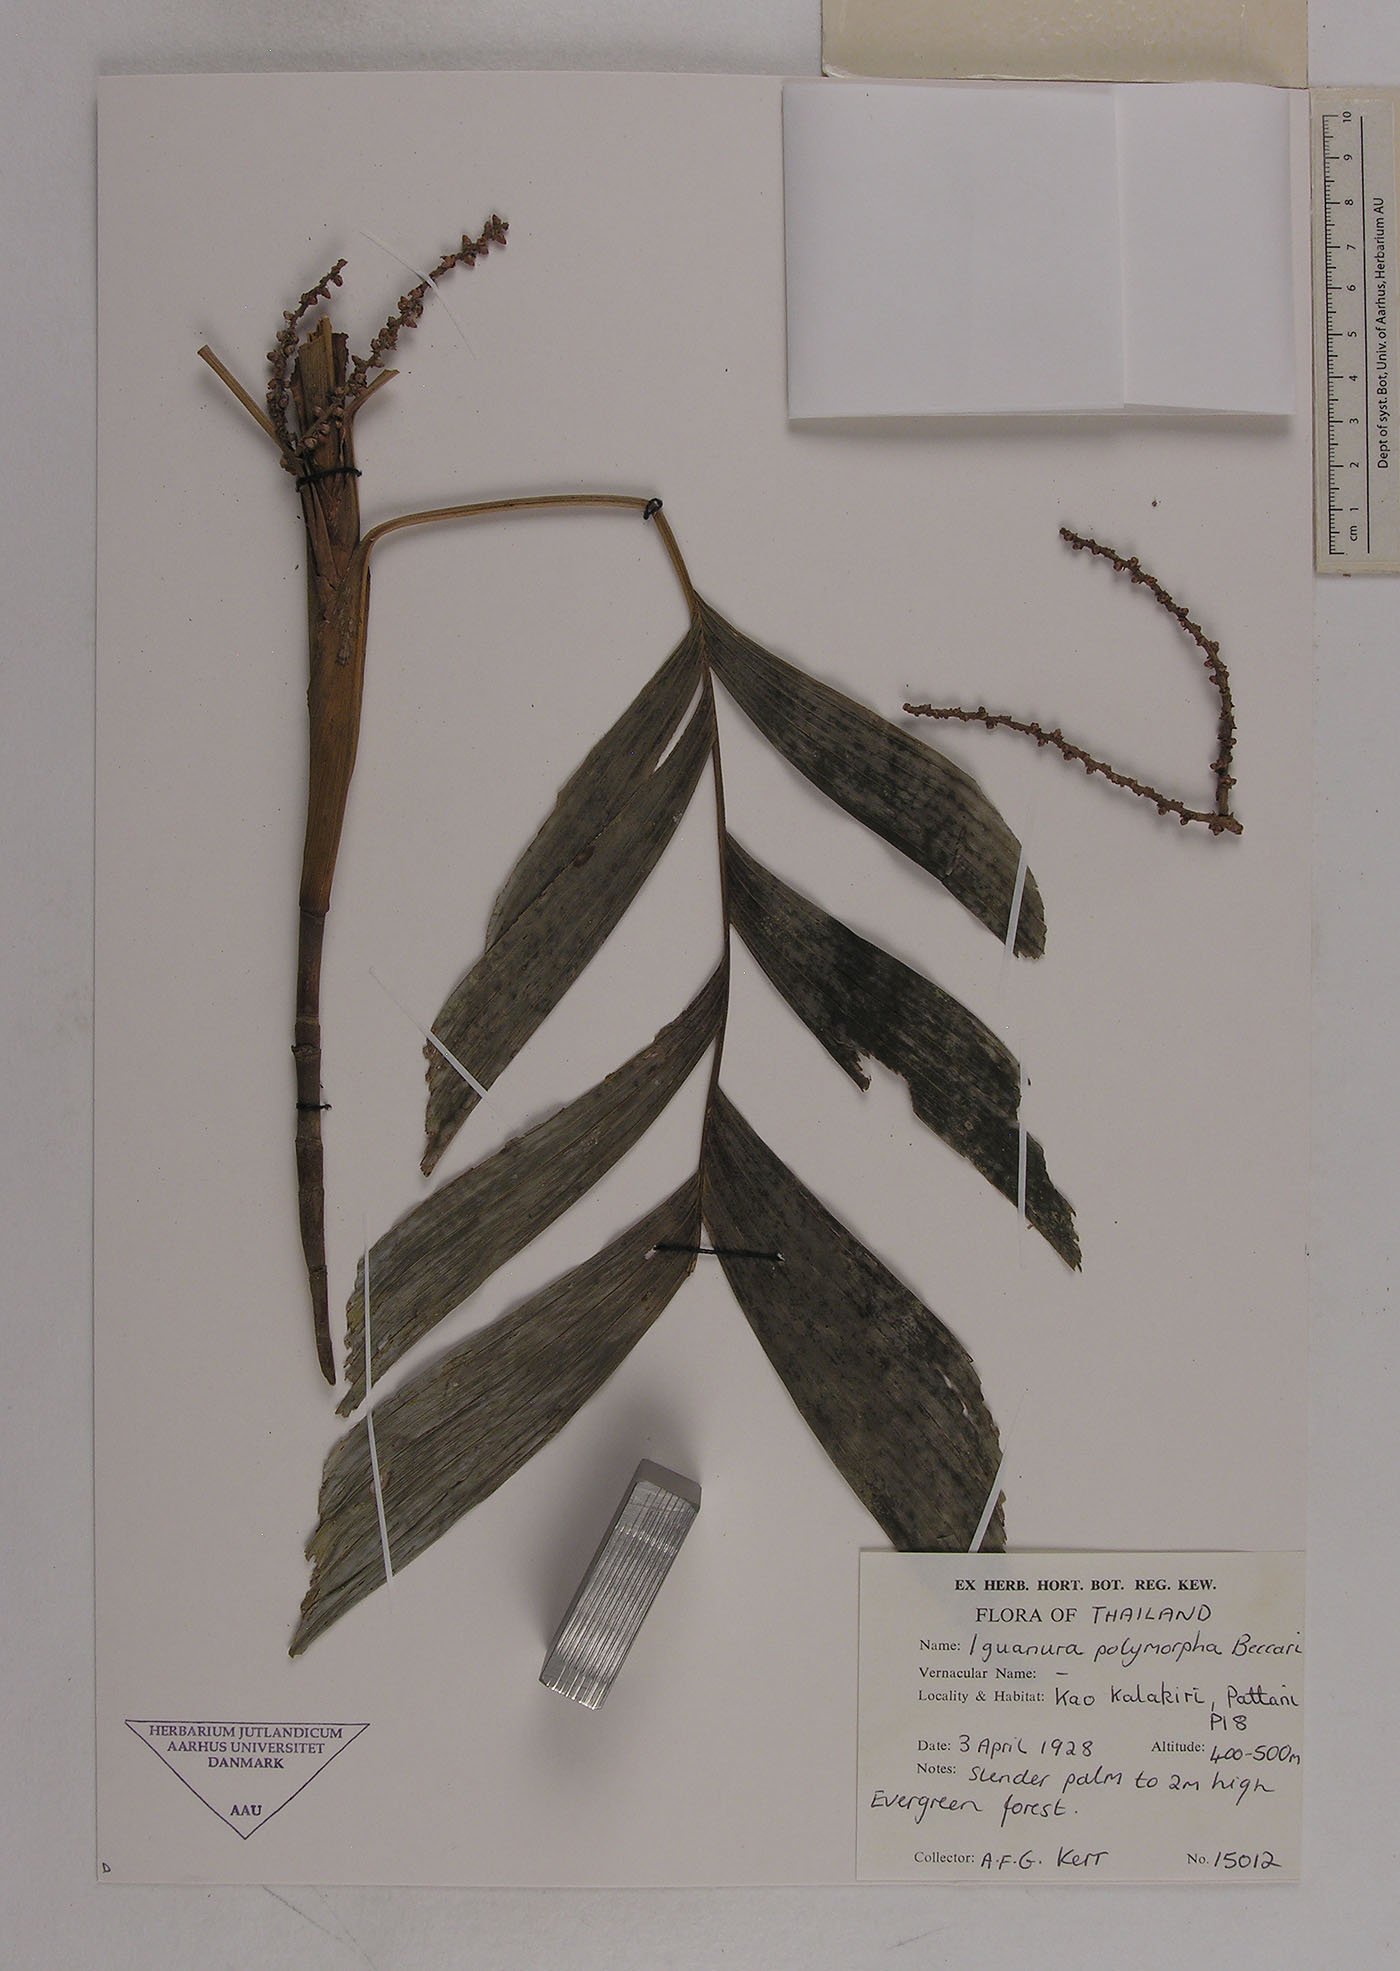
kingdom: Plantae
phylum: Tracheophyta
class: Liliopsida
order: Arecales
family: Arecaceae
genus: Iguanura
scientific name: Iguanura polymorpha
